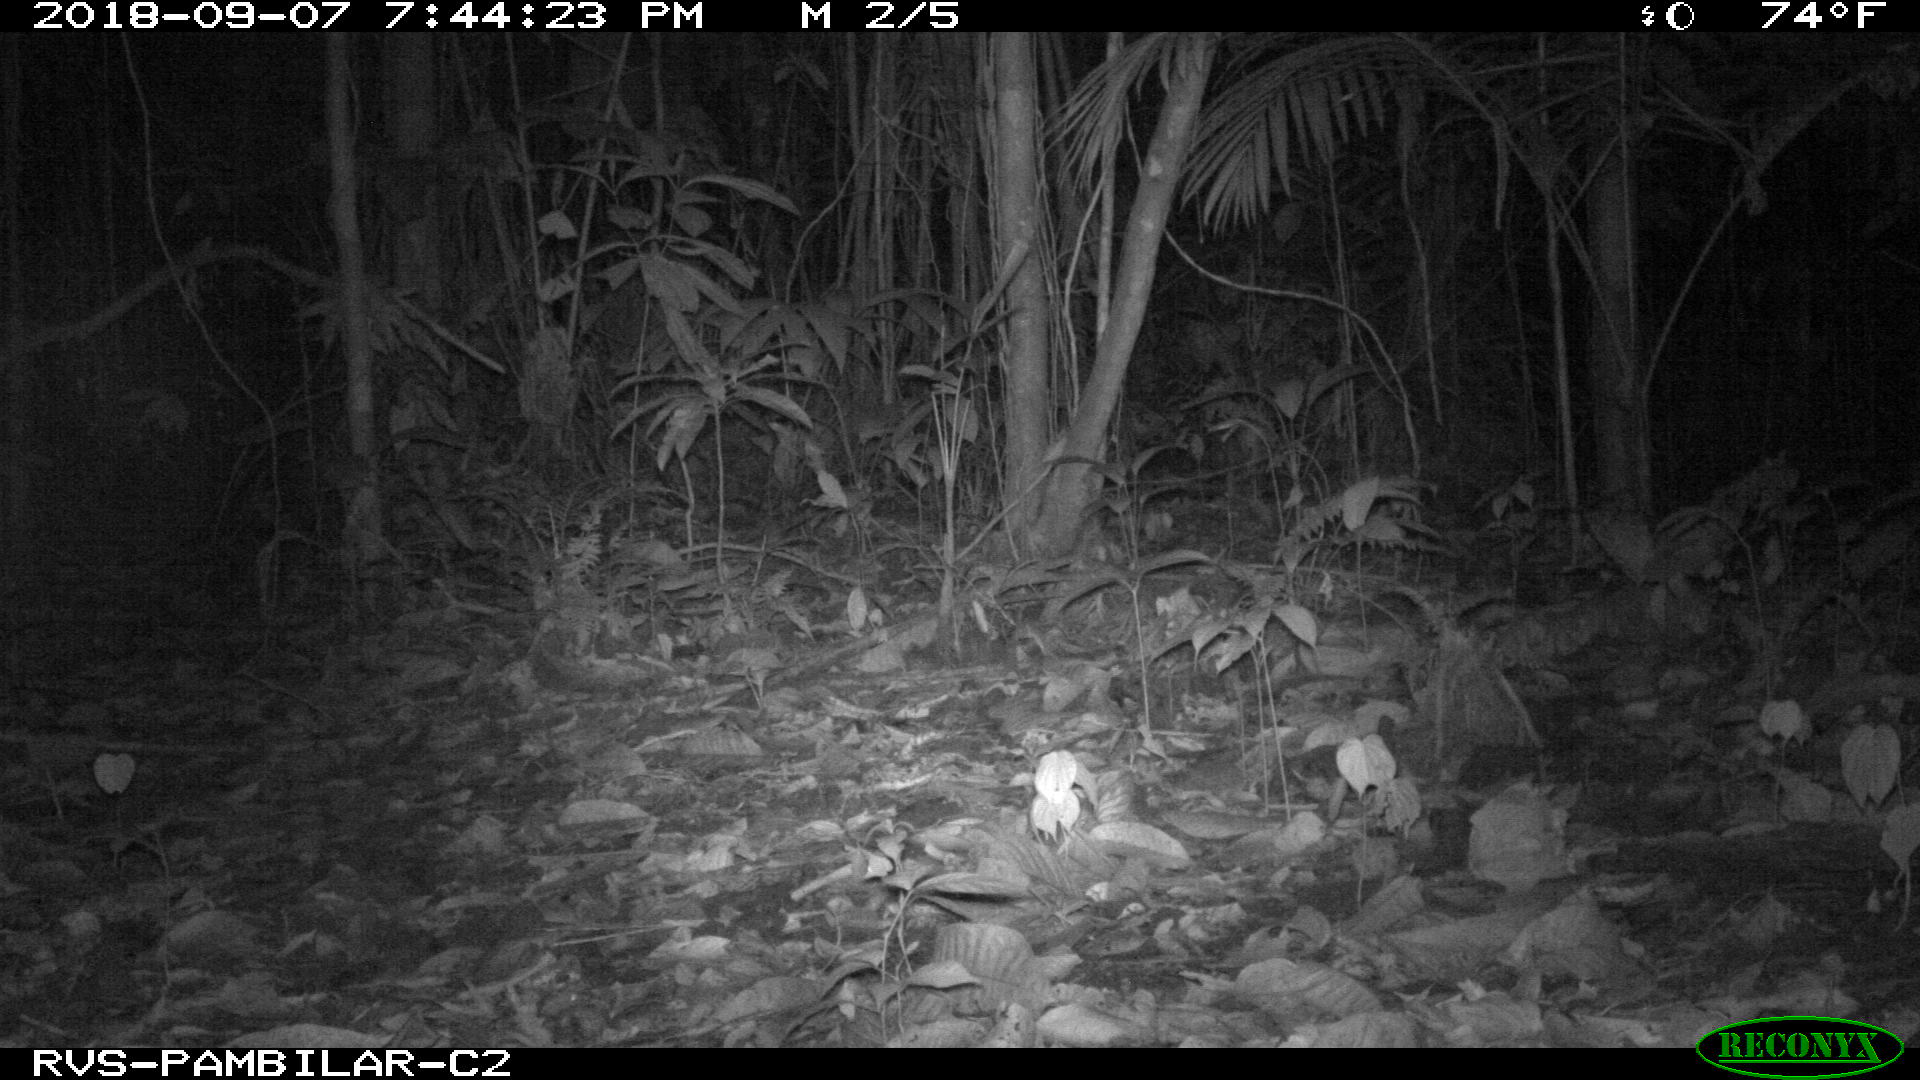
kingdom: Animalia
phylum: Chordata
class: Mammalia
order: Rodentia
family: Cuniculidae
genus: Cuniculus
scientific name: Cuniculus paca
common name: Lowland paca
